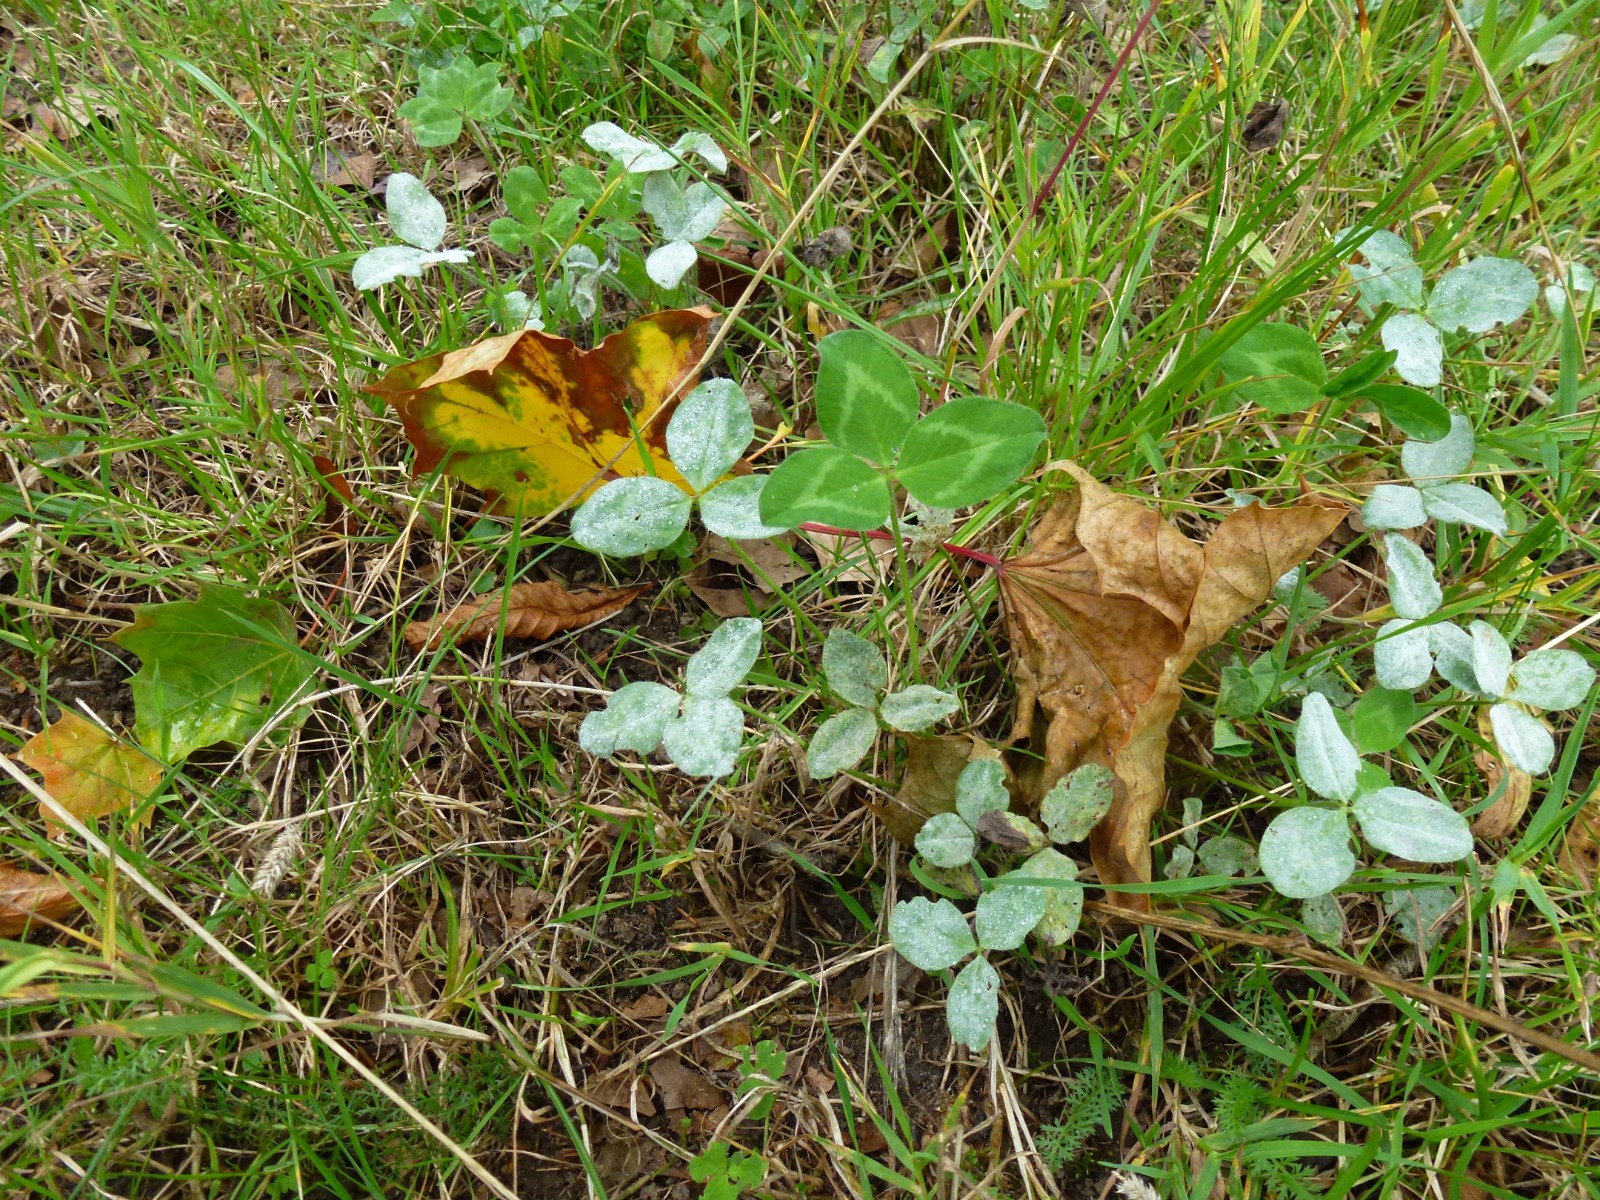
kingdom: Fungi
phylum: Ascomycota
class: Leotiomycetes
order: Helotiales
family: Erysiphaceae
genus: Erysiphe
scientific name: Erysiphe
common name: meldug
